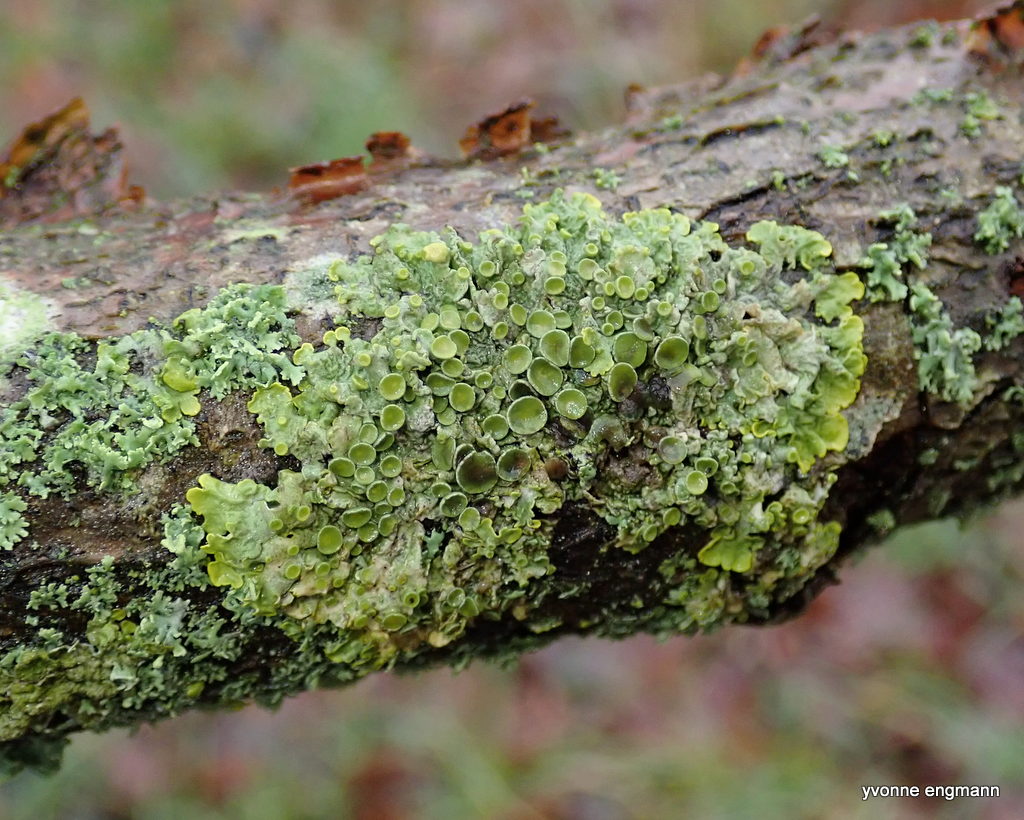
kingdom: Fungi
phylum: Ascomycota
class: Lecanoromycetes
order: Teloschistales
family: Teloschistaceae
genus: Xanthoria
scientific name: Xanthoria parietina
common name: almindelig væggelav
